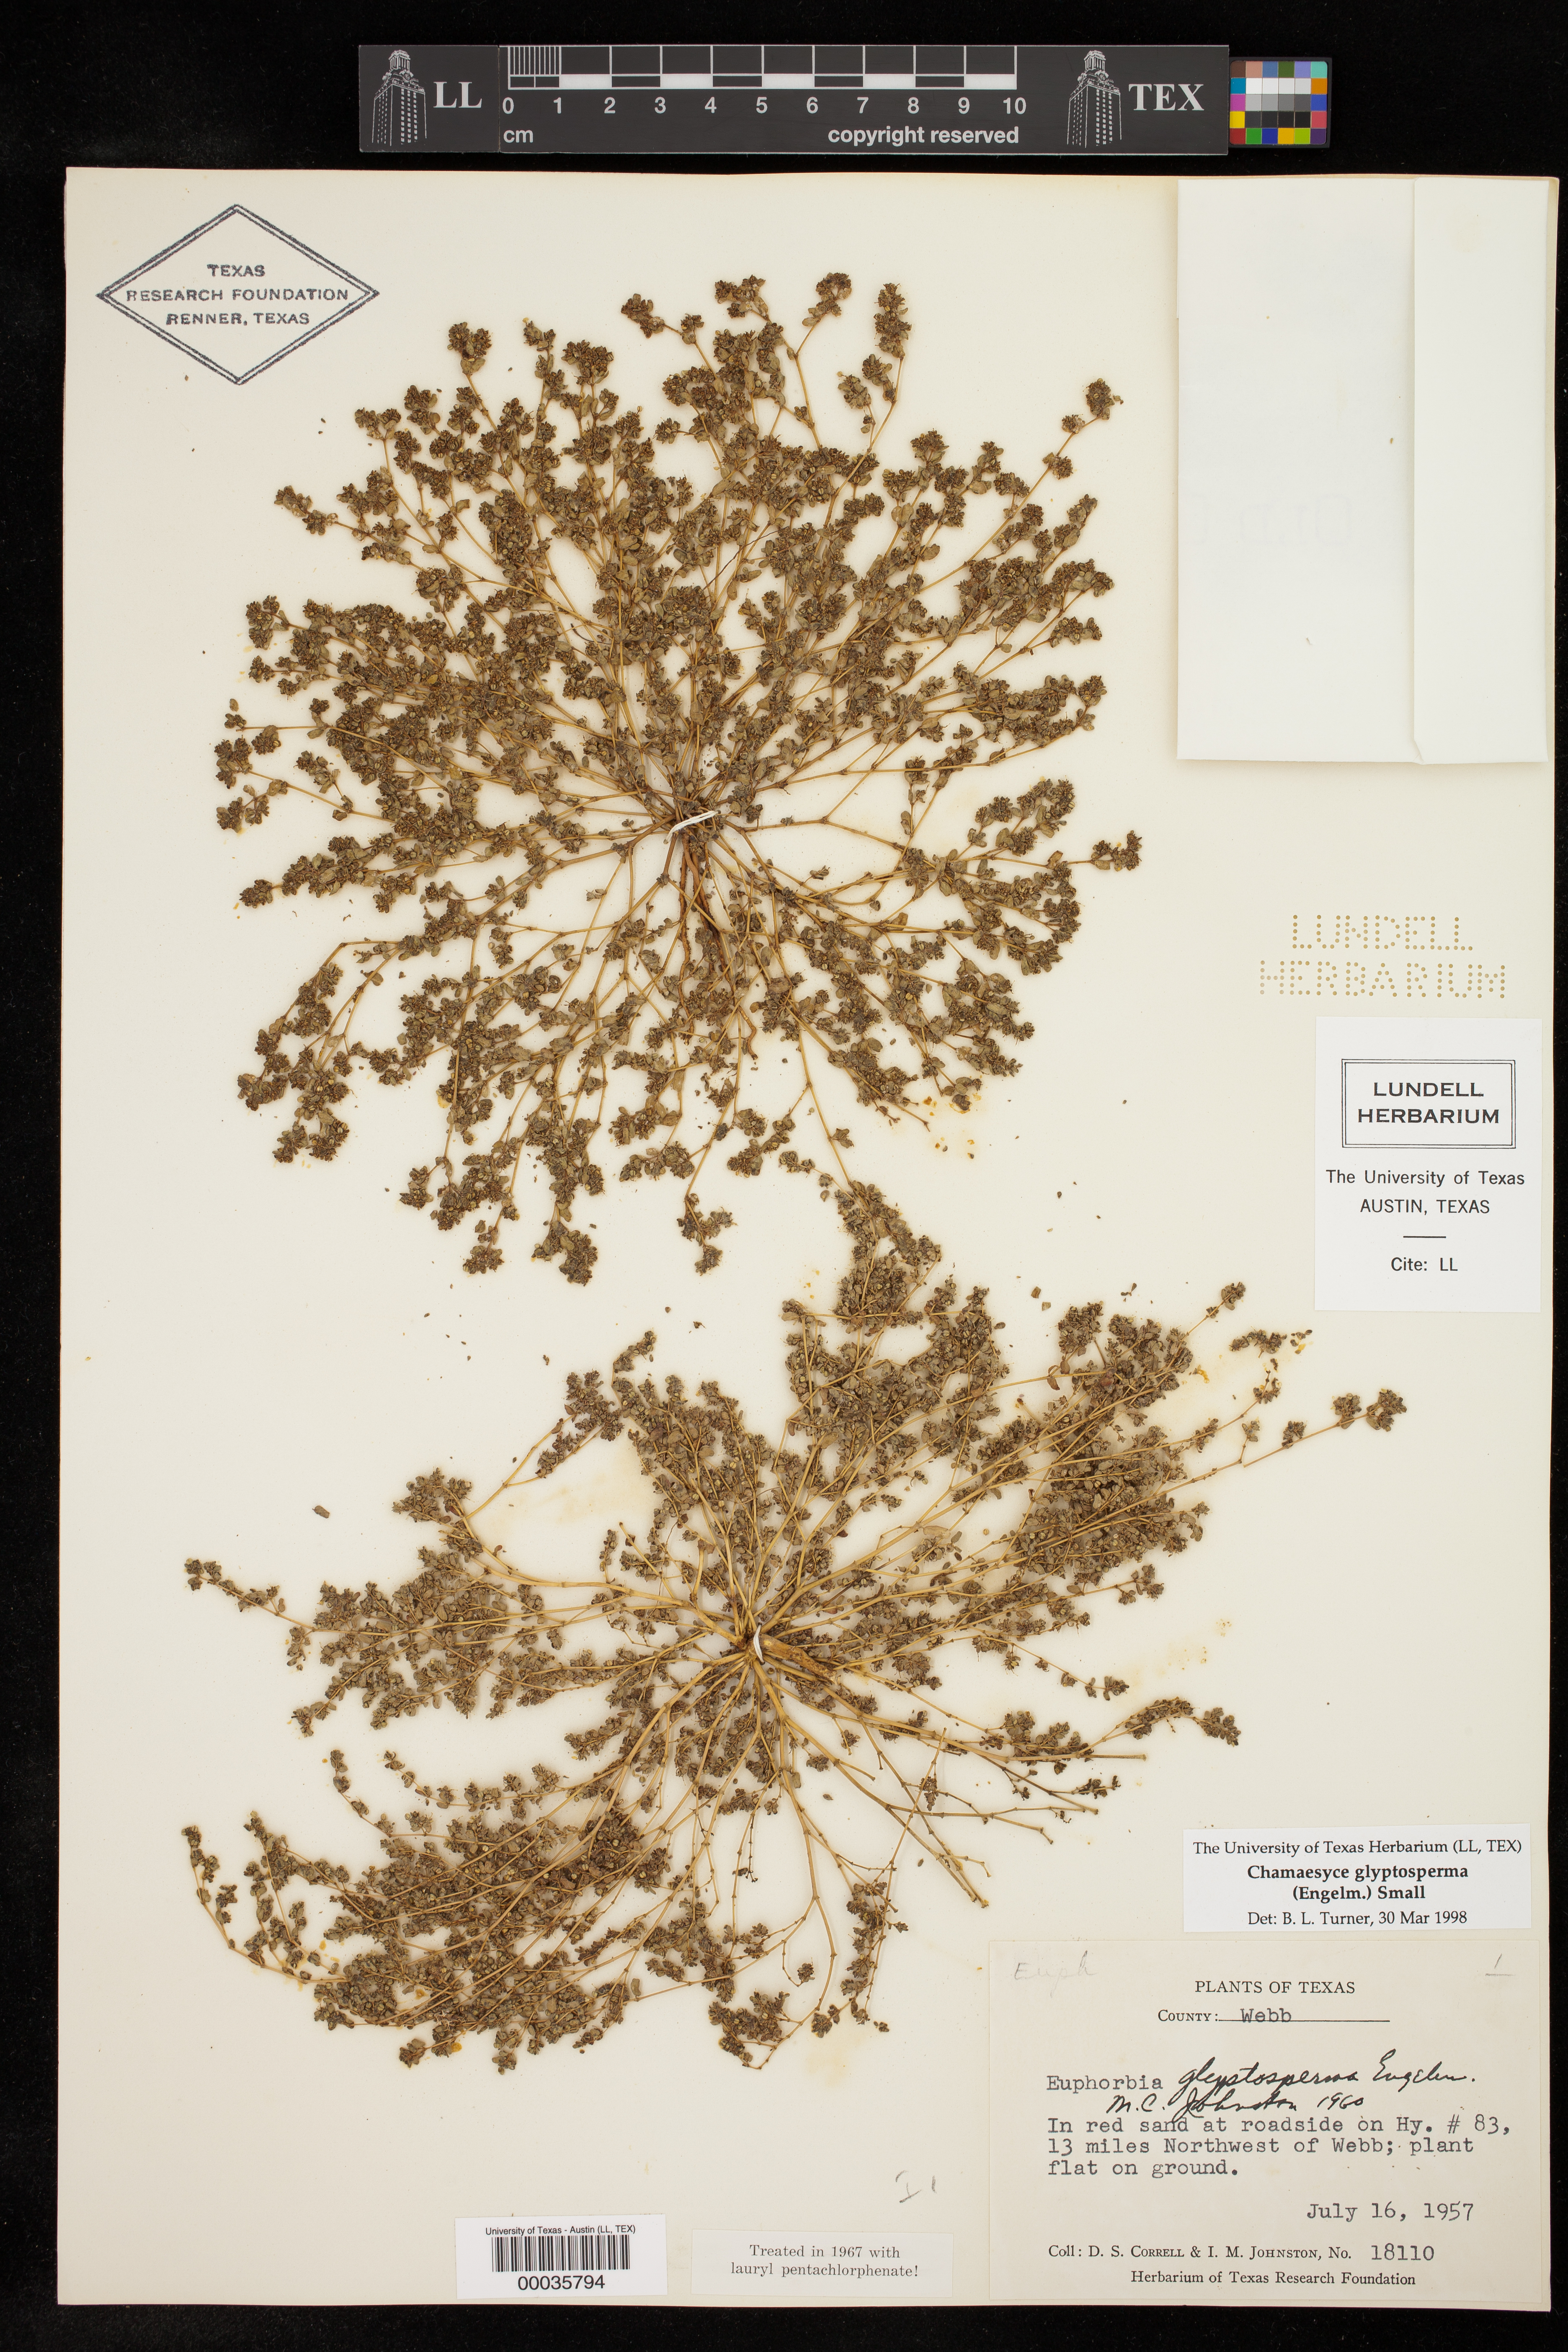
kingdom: Plantae
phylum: Tracheophyta
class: Magnoliopsida
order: Malpighiales
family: Euphorbiaceae
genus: Euphorbia
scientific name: Euphorbia glyptosperma
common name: Corrugate-seeded spurge
